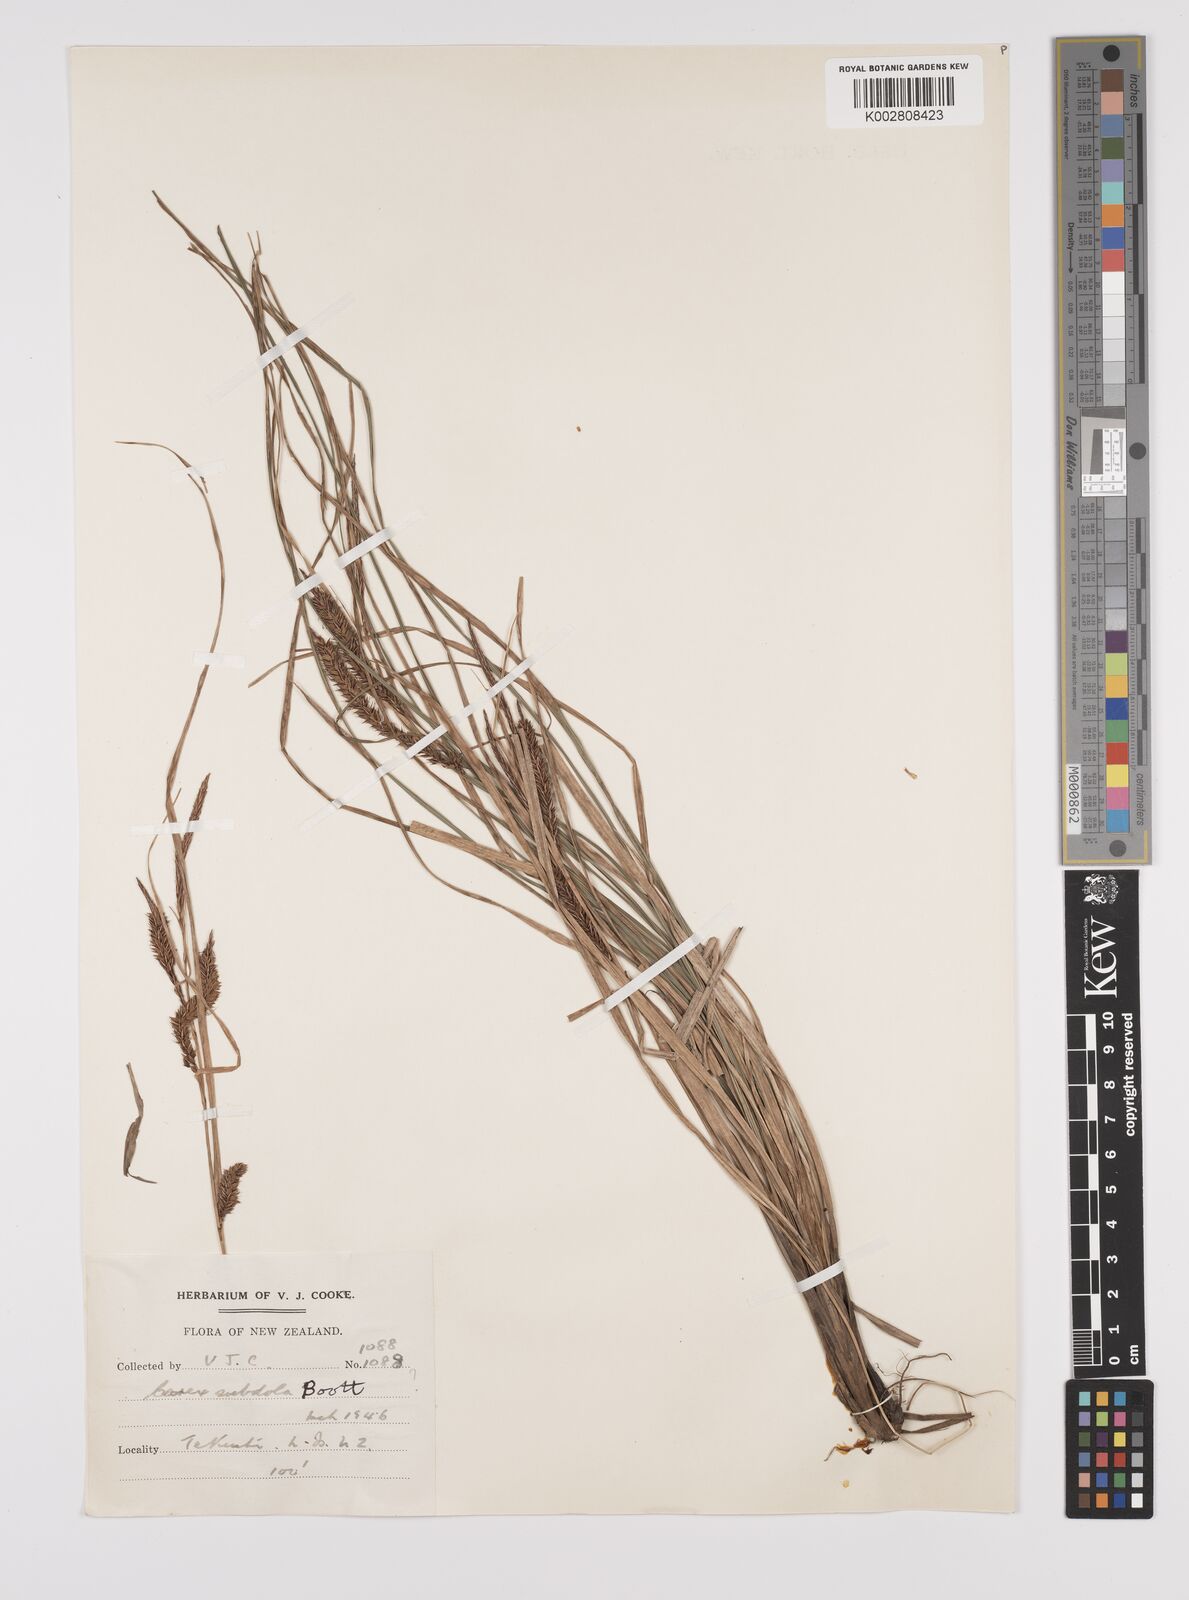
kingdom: Plantae
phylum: Tracheophyta
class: Liliopsida
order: Poales
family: Cyperaceae
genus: Carex
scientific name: Carex subdola
